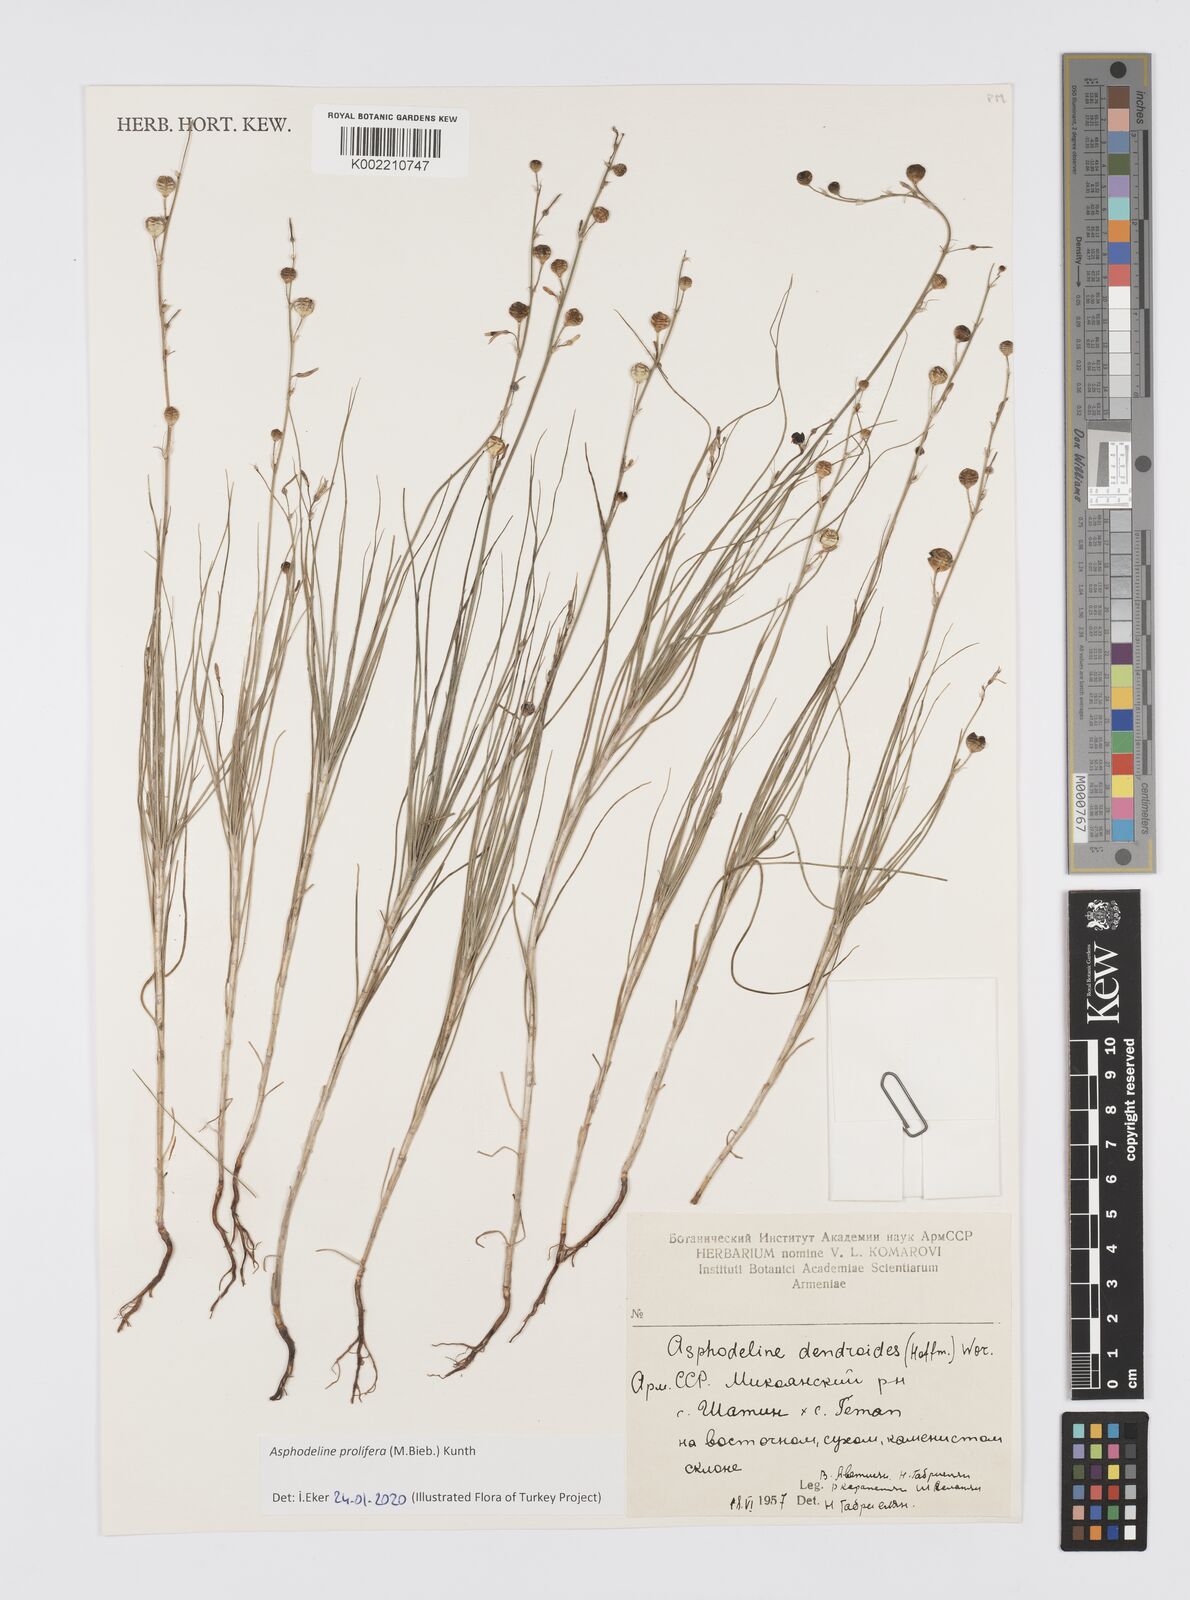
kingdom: Plantae
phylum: Tracheophyta
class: Liliopsida
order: Asparagales
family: Asphodelaceae
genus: Asphodeline
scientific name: Asphodeline prolifera
